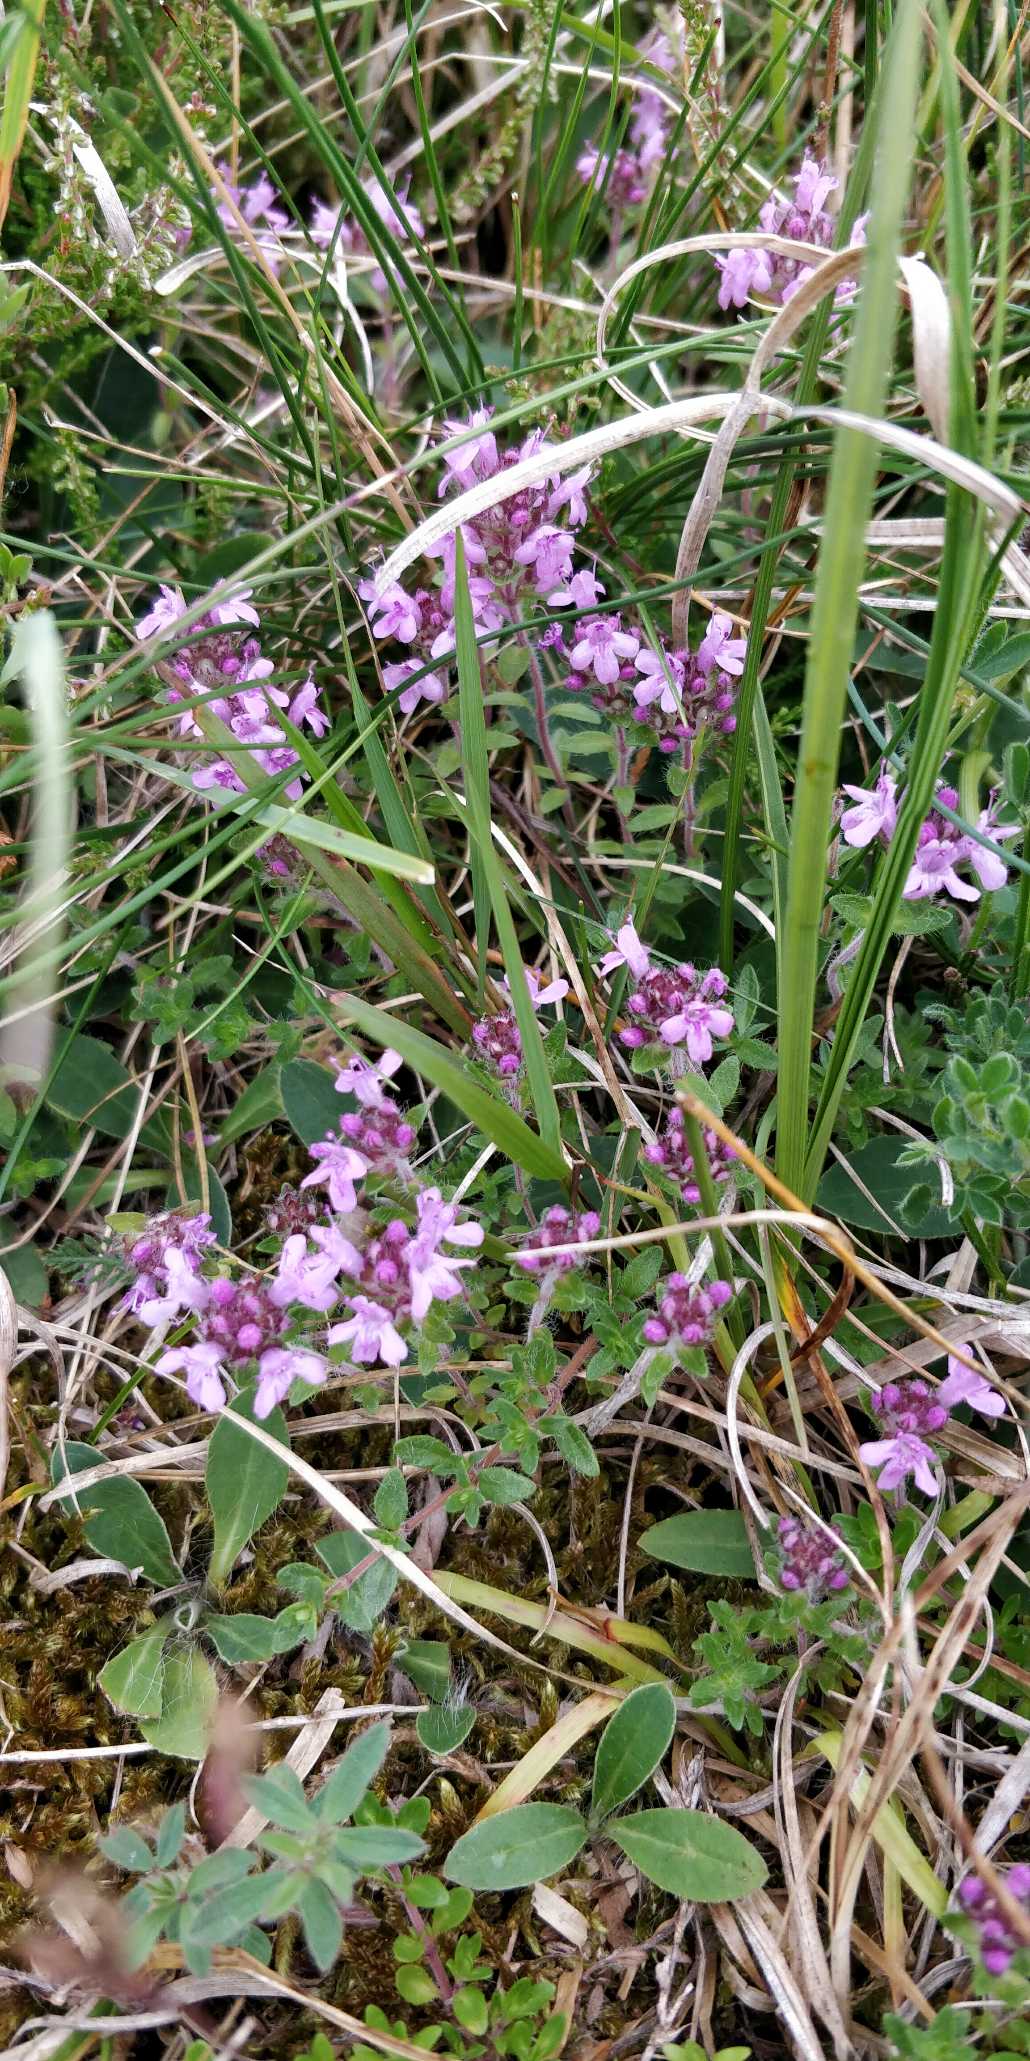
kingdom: Plantae
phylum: Tracheophyta
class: Magnoliopsida
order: Lamiales
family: Lamiaceae
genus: Thymus
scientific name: Thymus serpyllum
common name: Smalbladet timian
